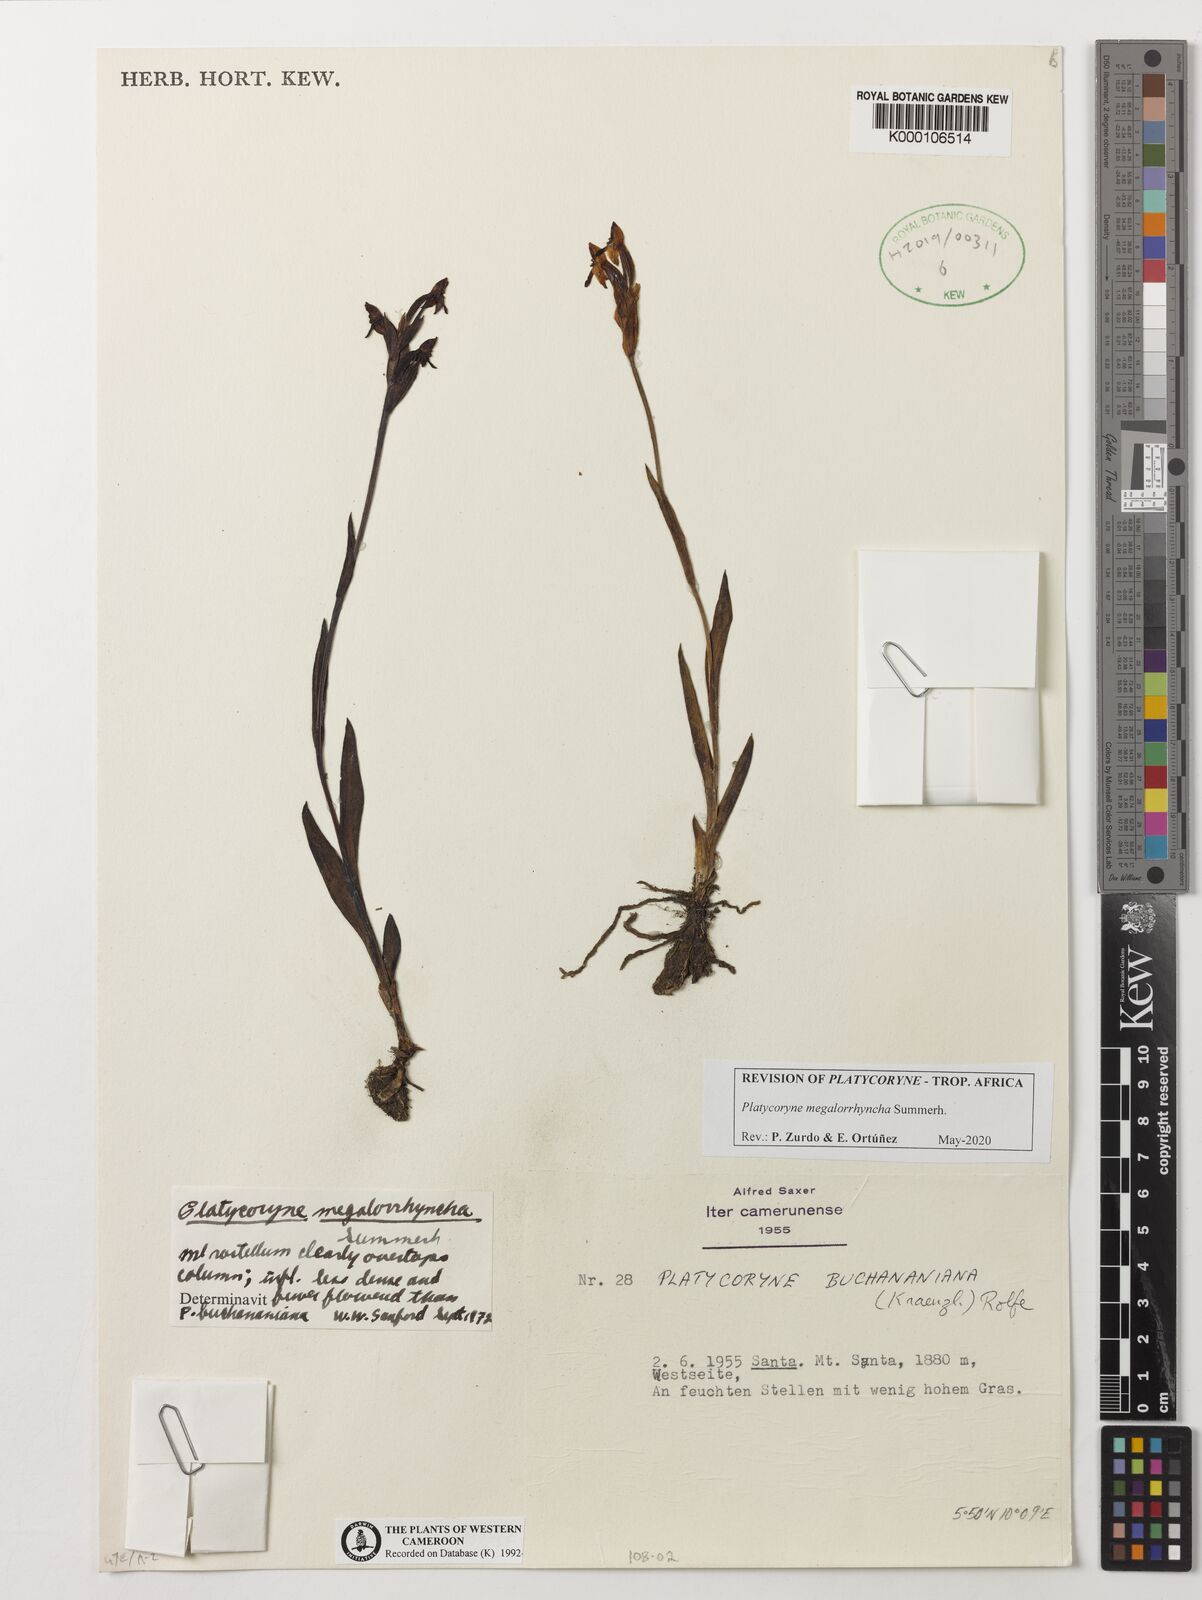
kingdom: Plantae
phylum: Tracheophyta
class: Liliopsida
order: Asparagales
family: Orchidaceae
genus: Platycoryne
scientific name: Platycoryne megalorrhyncha
